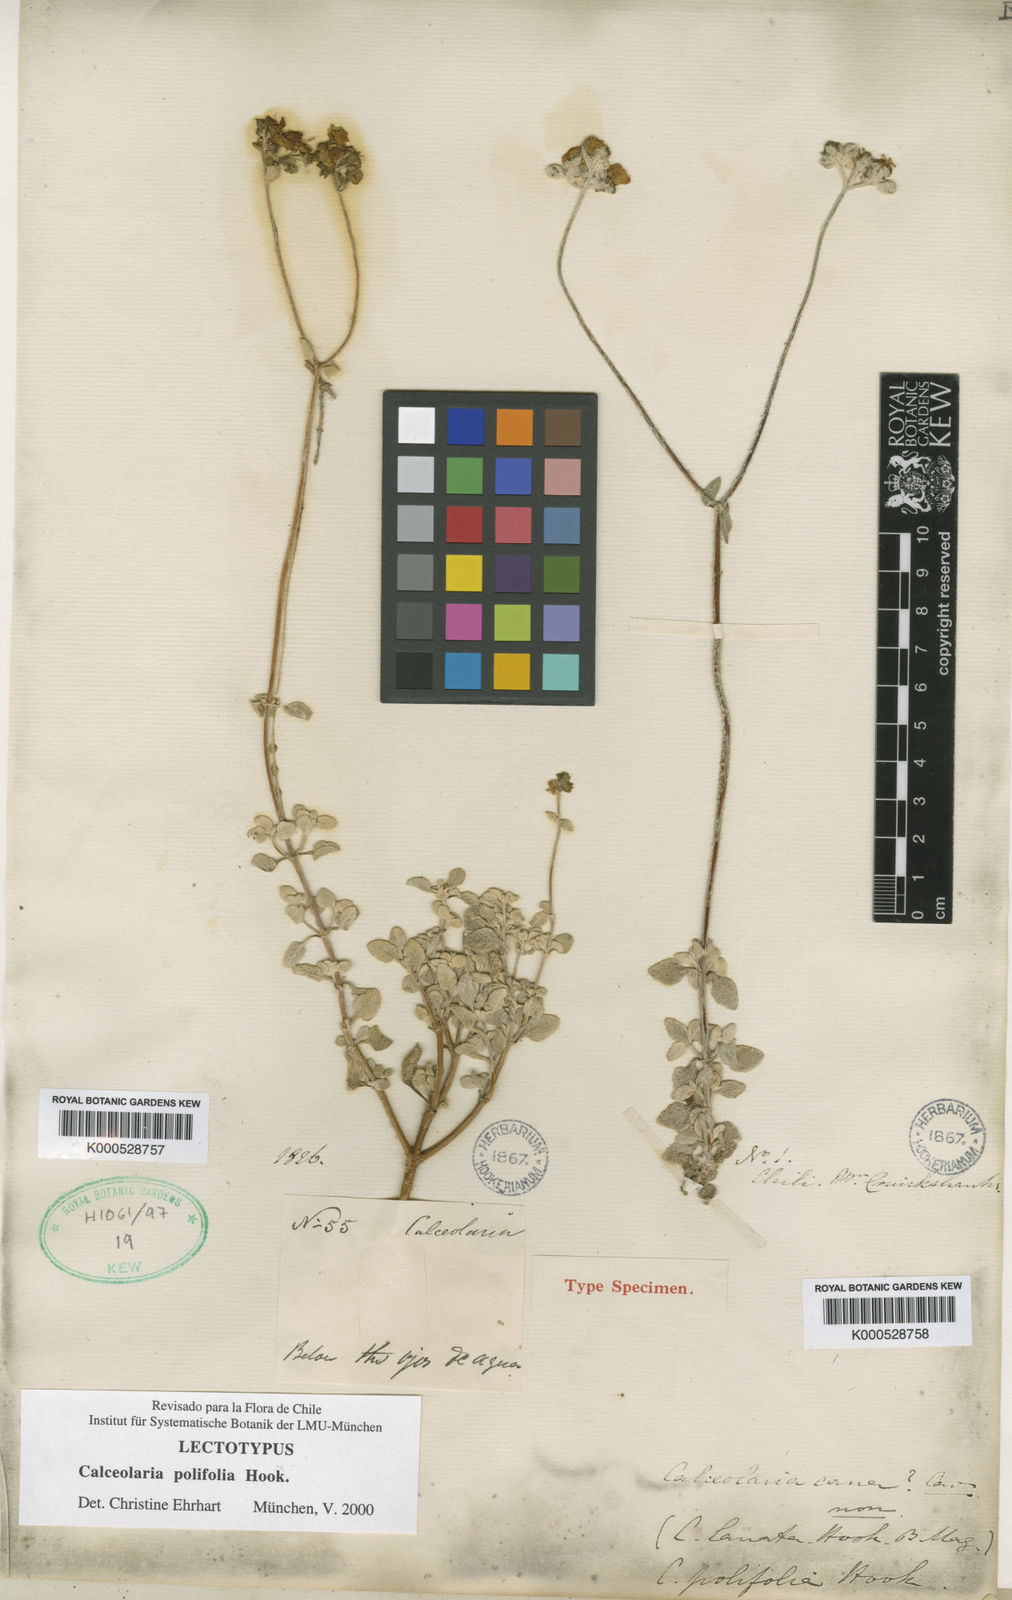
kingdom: Plantae
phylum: Tracheophyta
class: Magnoliopsida
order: Lamiales
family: Calceolariaceae
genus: Calceolaria
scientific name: Calceolaria polifolia
